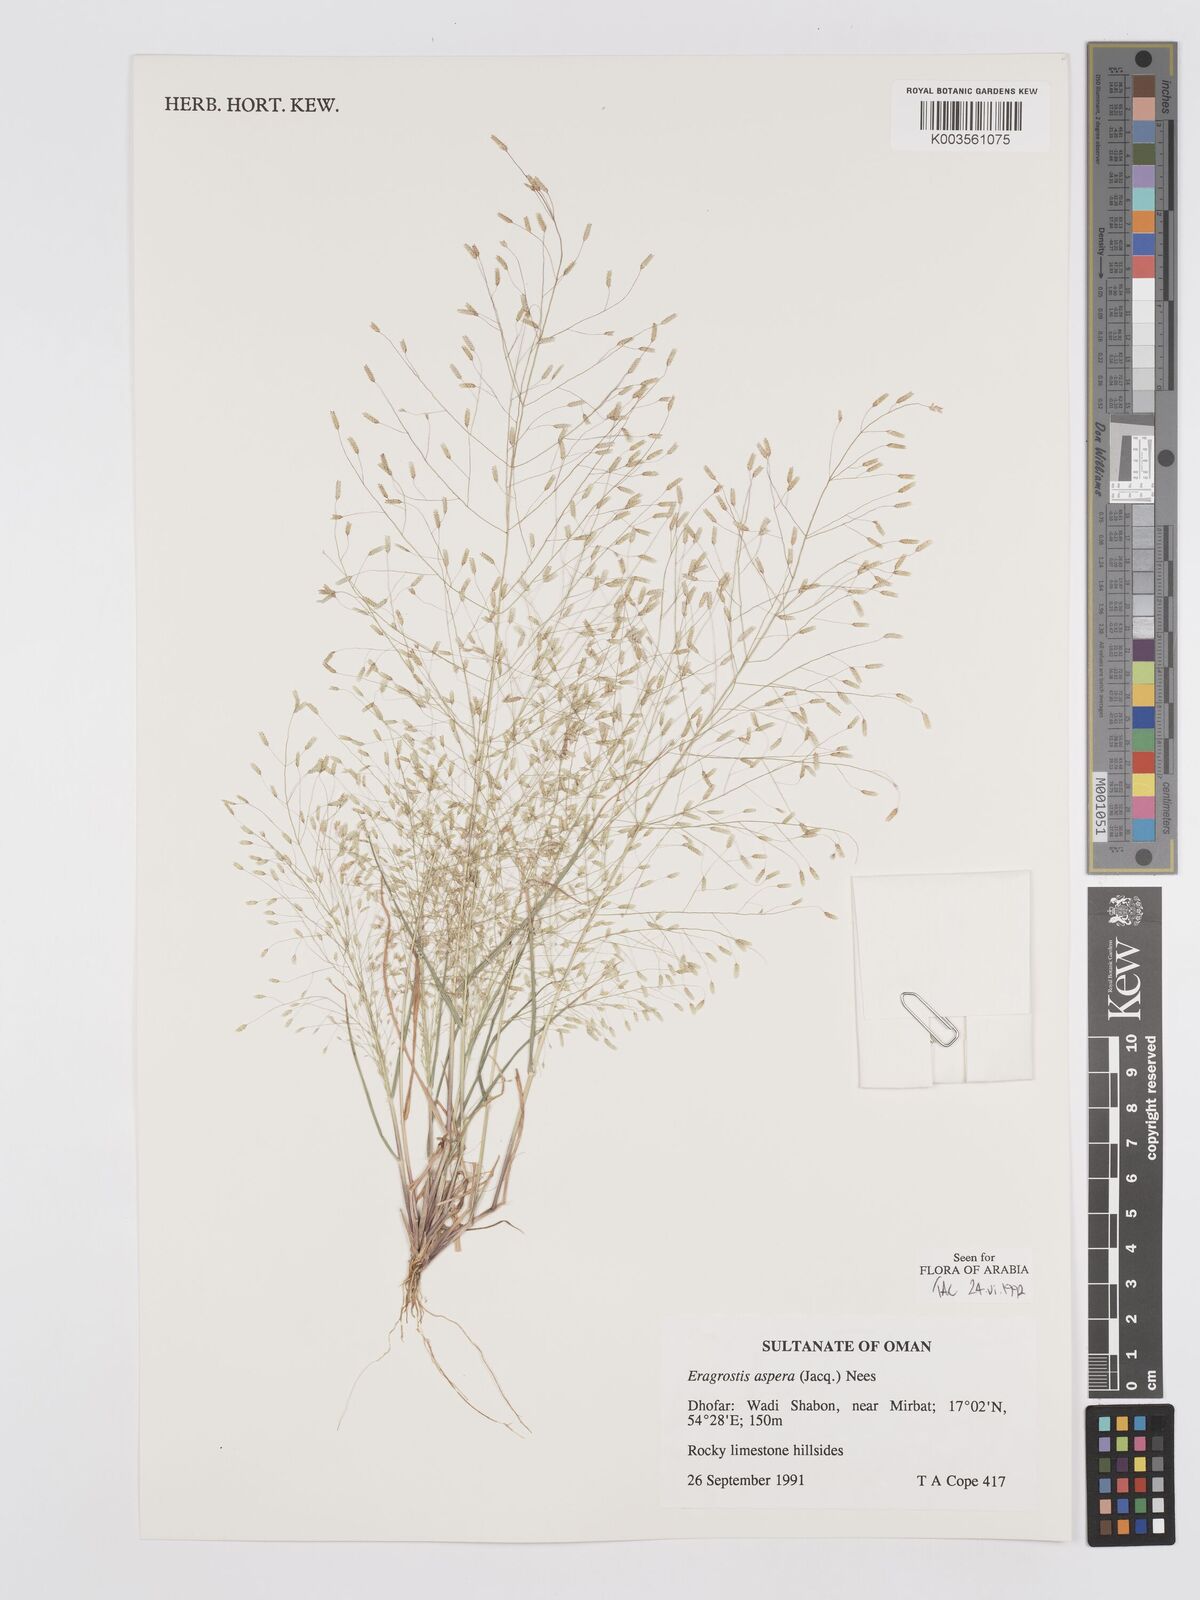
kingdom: Plantae
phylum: Tracheophyta
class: Liliopsida
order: Poales
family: Poaceae
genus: Eragrostis
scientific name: Eragrostis aspera
